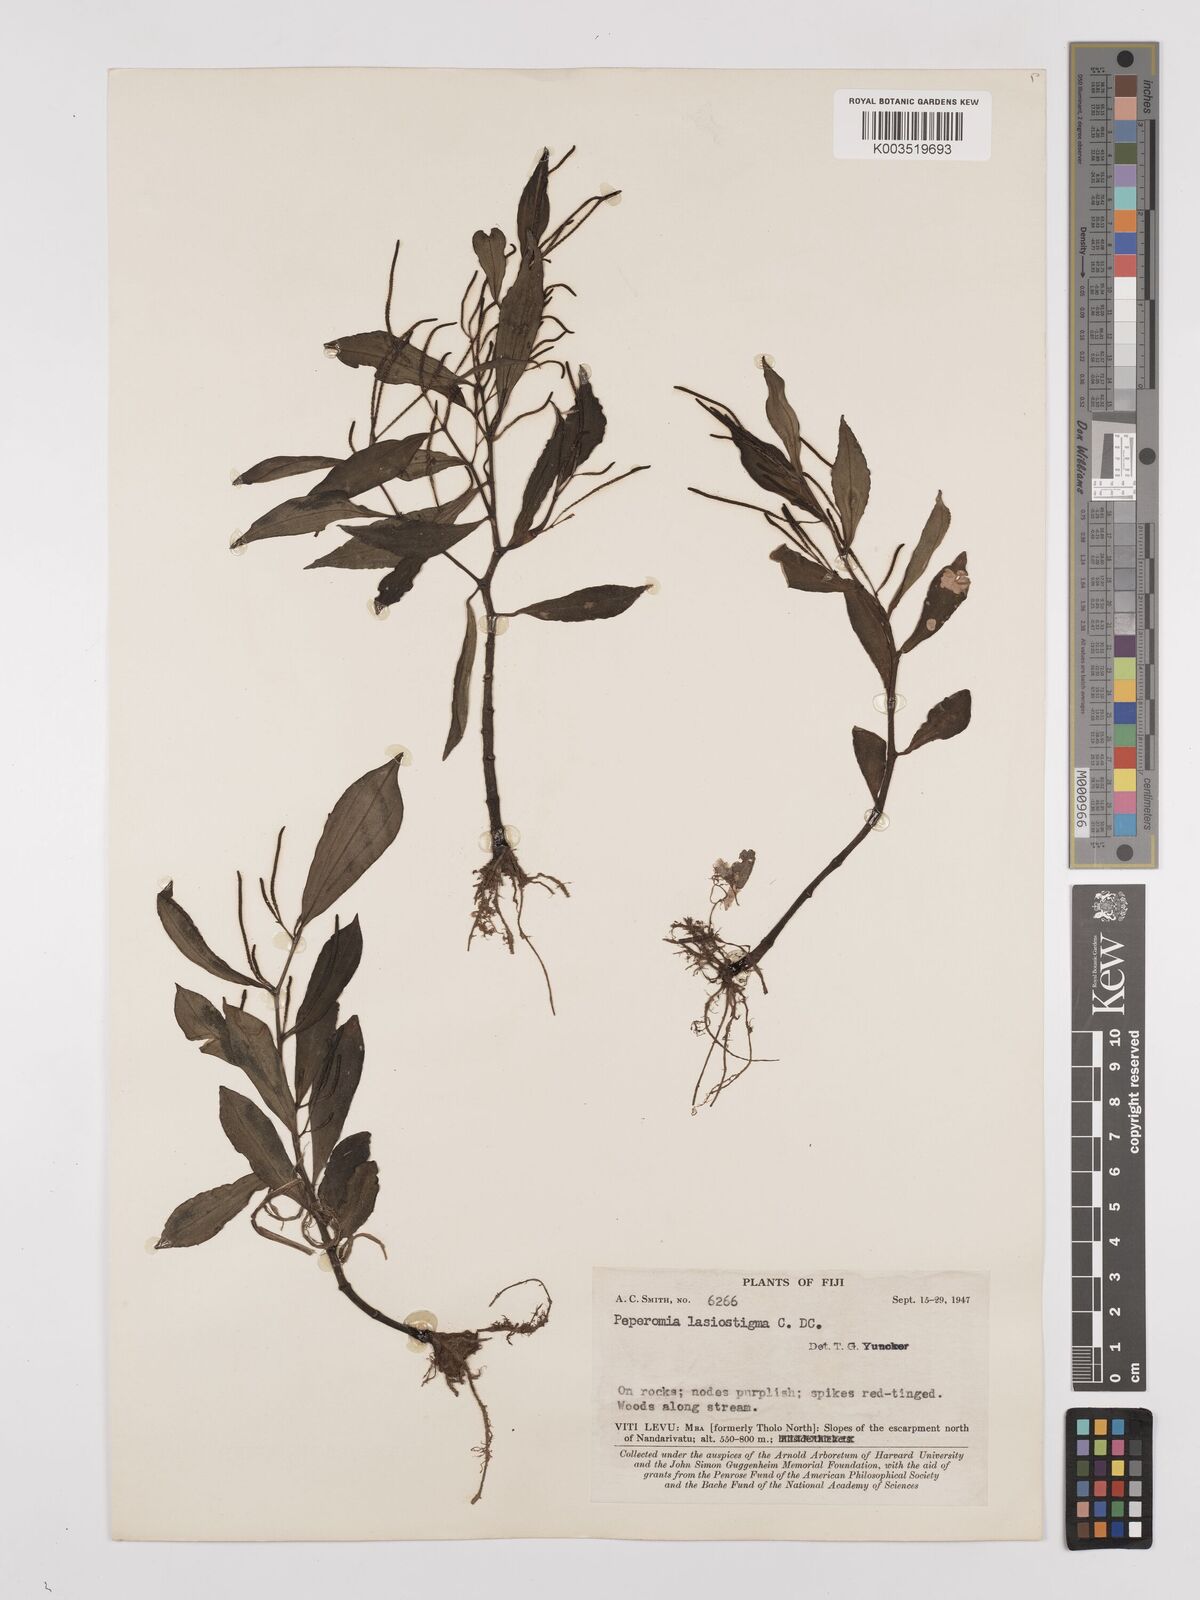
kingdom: Plantae
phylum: Tracheophyta
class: Magnoliopsida
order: Piperales
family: Piperaceae
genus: Peperomia
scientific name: Peperomia lasiostigma
